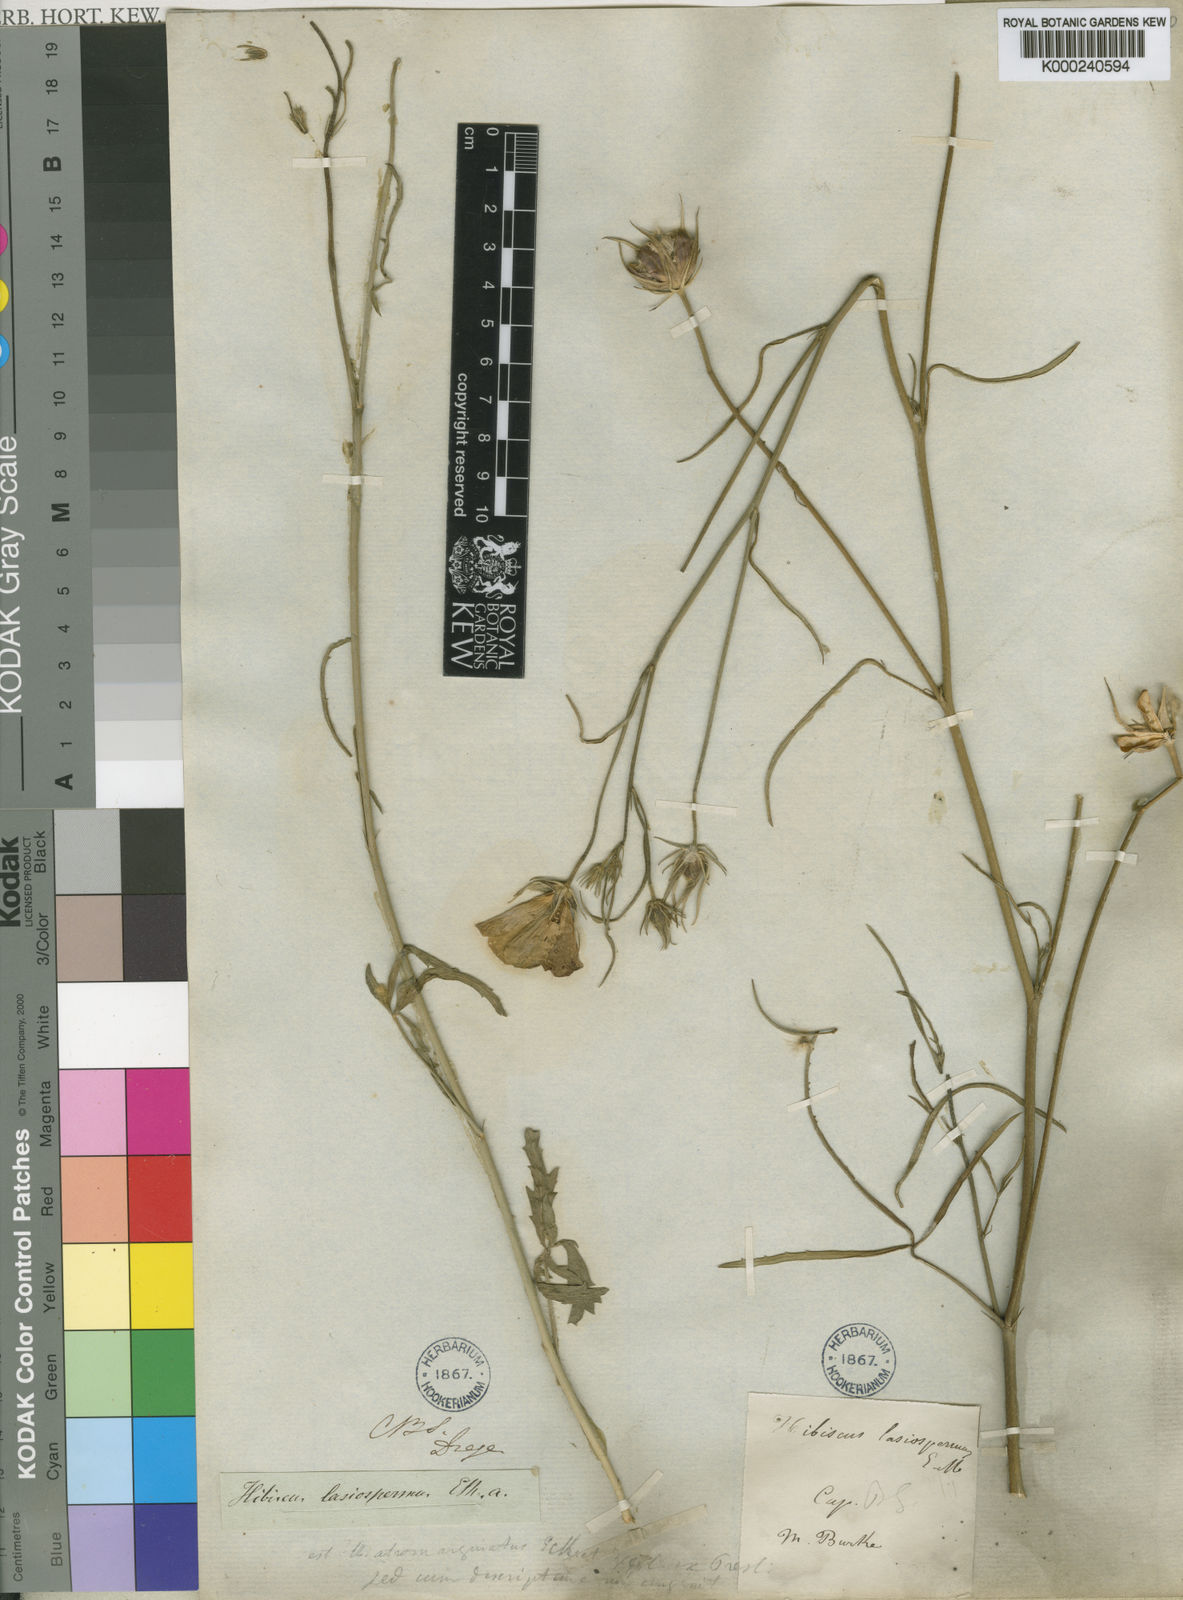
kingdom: Plantae
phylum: Tracheophyta
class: Magnoliopsida
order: Malvales
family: Malvaceae
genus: Hibiscus
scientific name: Hibiscus pusillus
